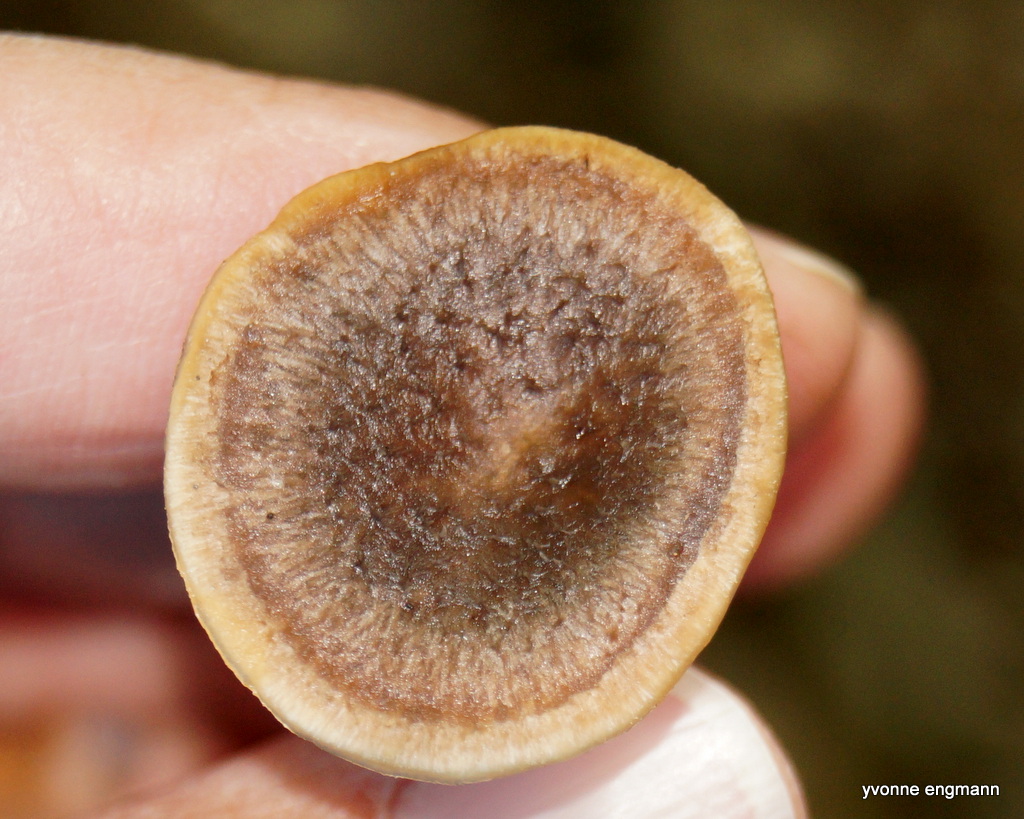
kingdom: Fungi
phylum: Basidiomycota
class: Agaricomycetes
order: Polyporales
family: Polyporaceae
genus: Polyporus
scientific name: Polyporus tuberaster
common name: knoldet stilkporesvamp
